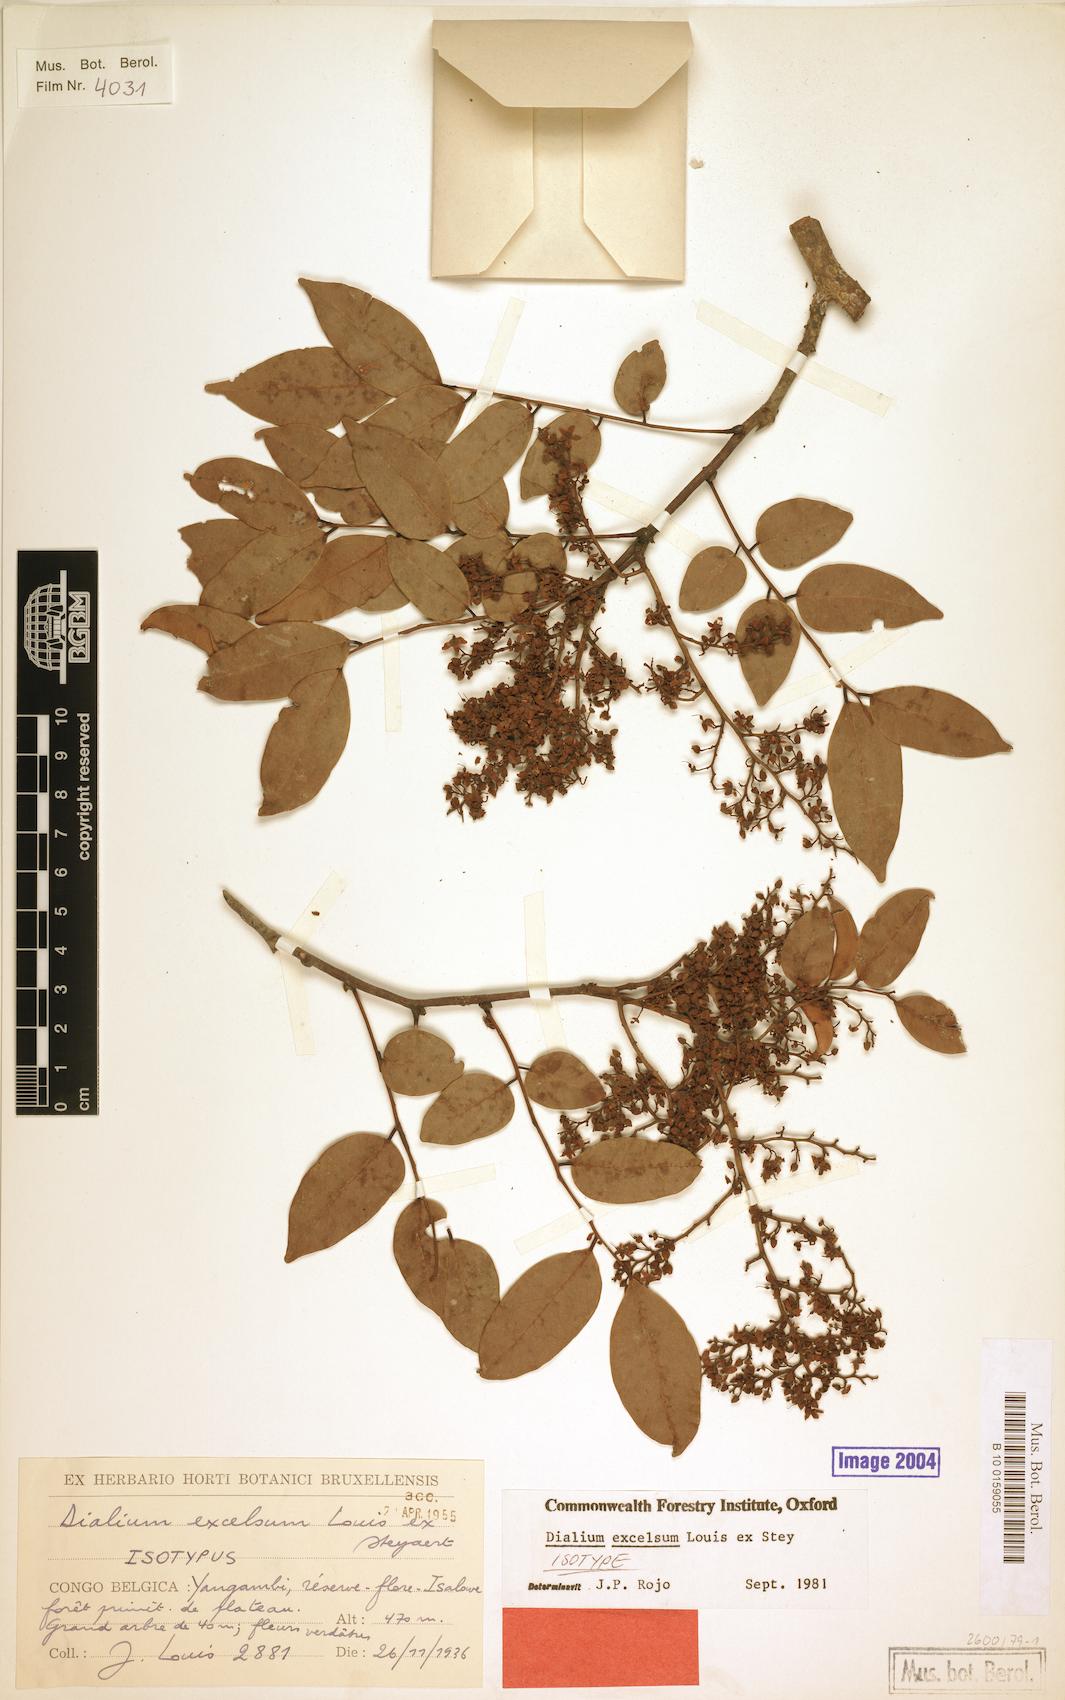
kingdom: Plantae
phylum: Tracheophyta
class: Magnoliopsida
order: Fabales
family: Fabaceae
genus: Dialium
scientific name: Dialium excelsum
